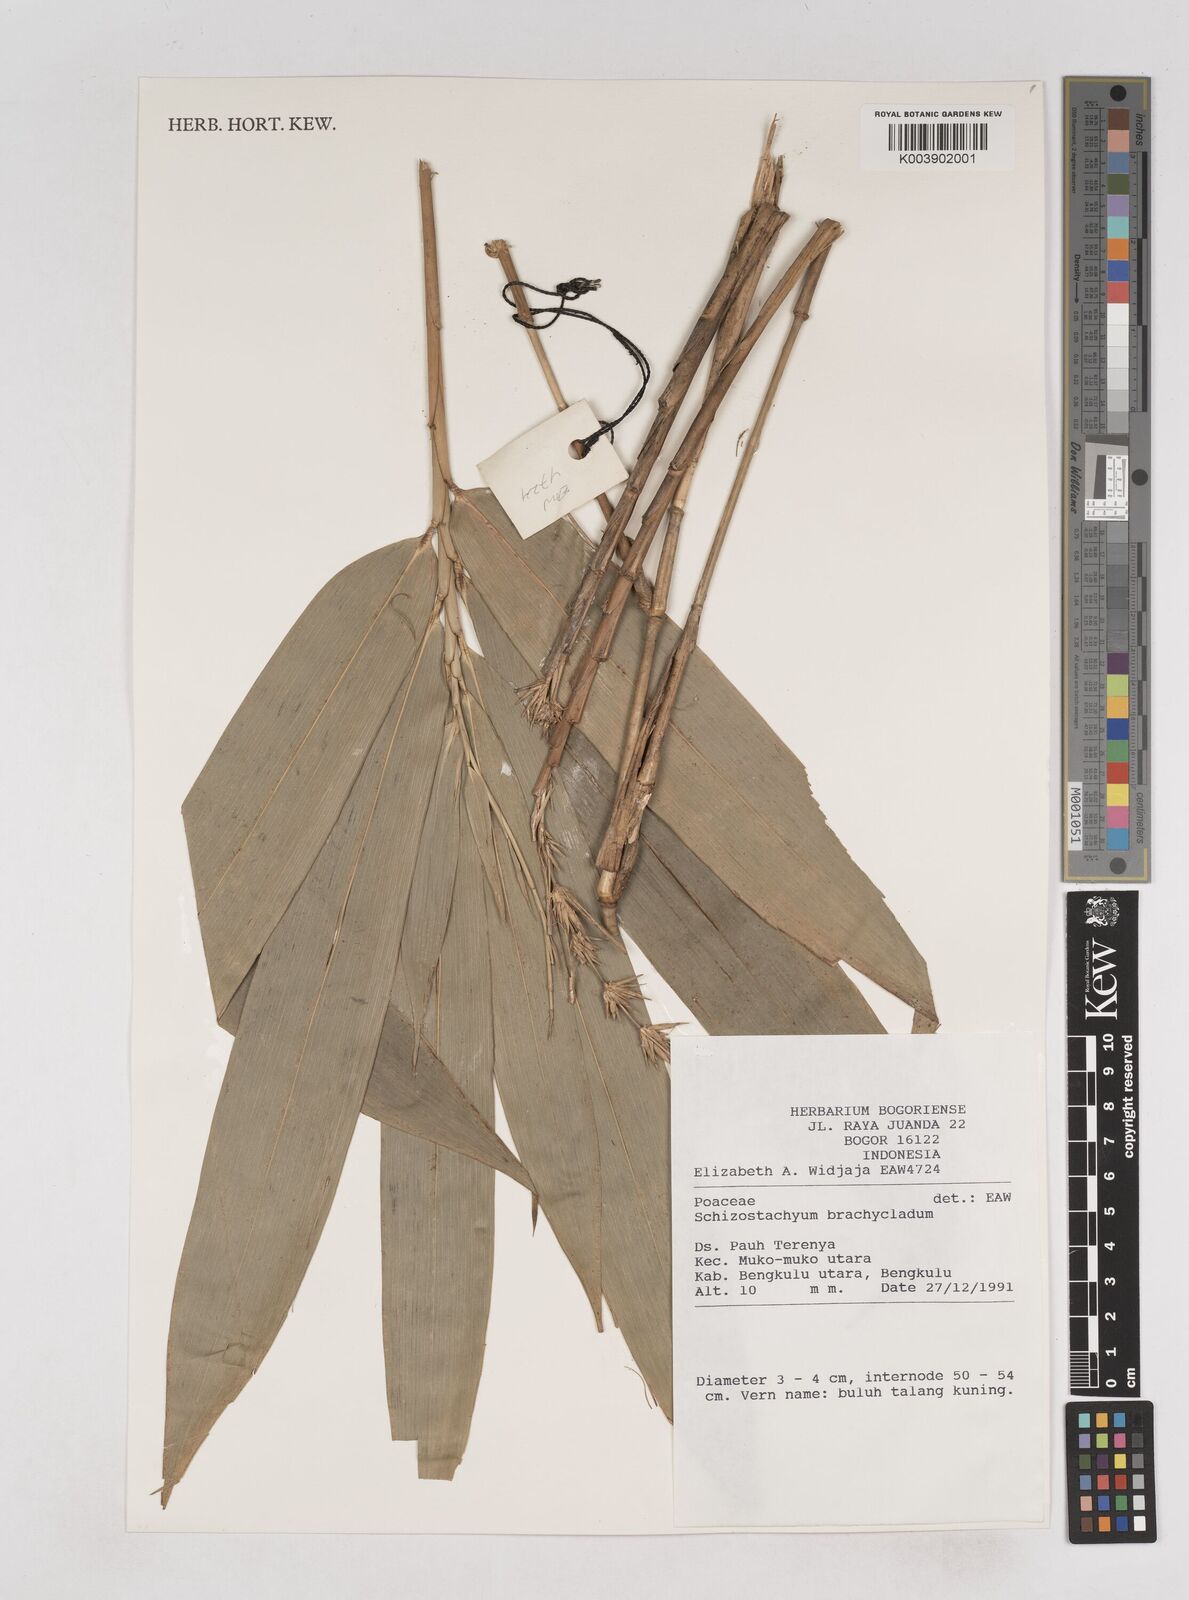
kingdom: Plantae
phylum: Tracheophyta
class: Liliopsida
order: Poales
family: Poaceae
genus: Schizostachyum
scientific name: Schizostachyum brachycladum
